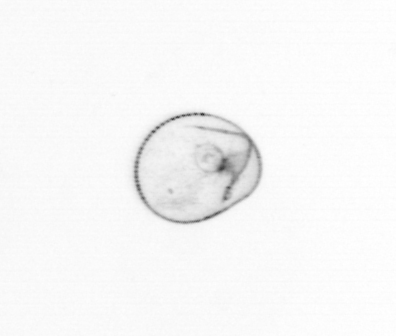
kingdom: Chromista
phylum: Myzozoa
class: Dinophyceae
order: Noctilucales
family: Noctilucaceae
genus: Noctiluca
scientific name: Noctiluca scintillans
